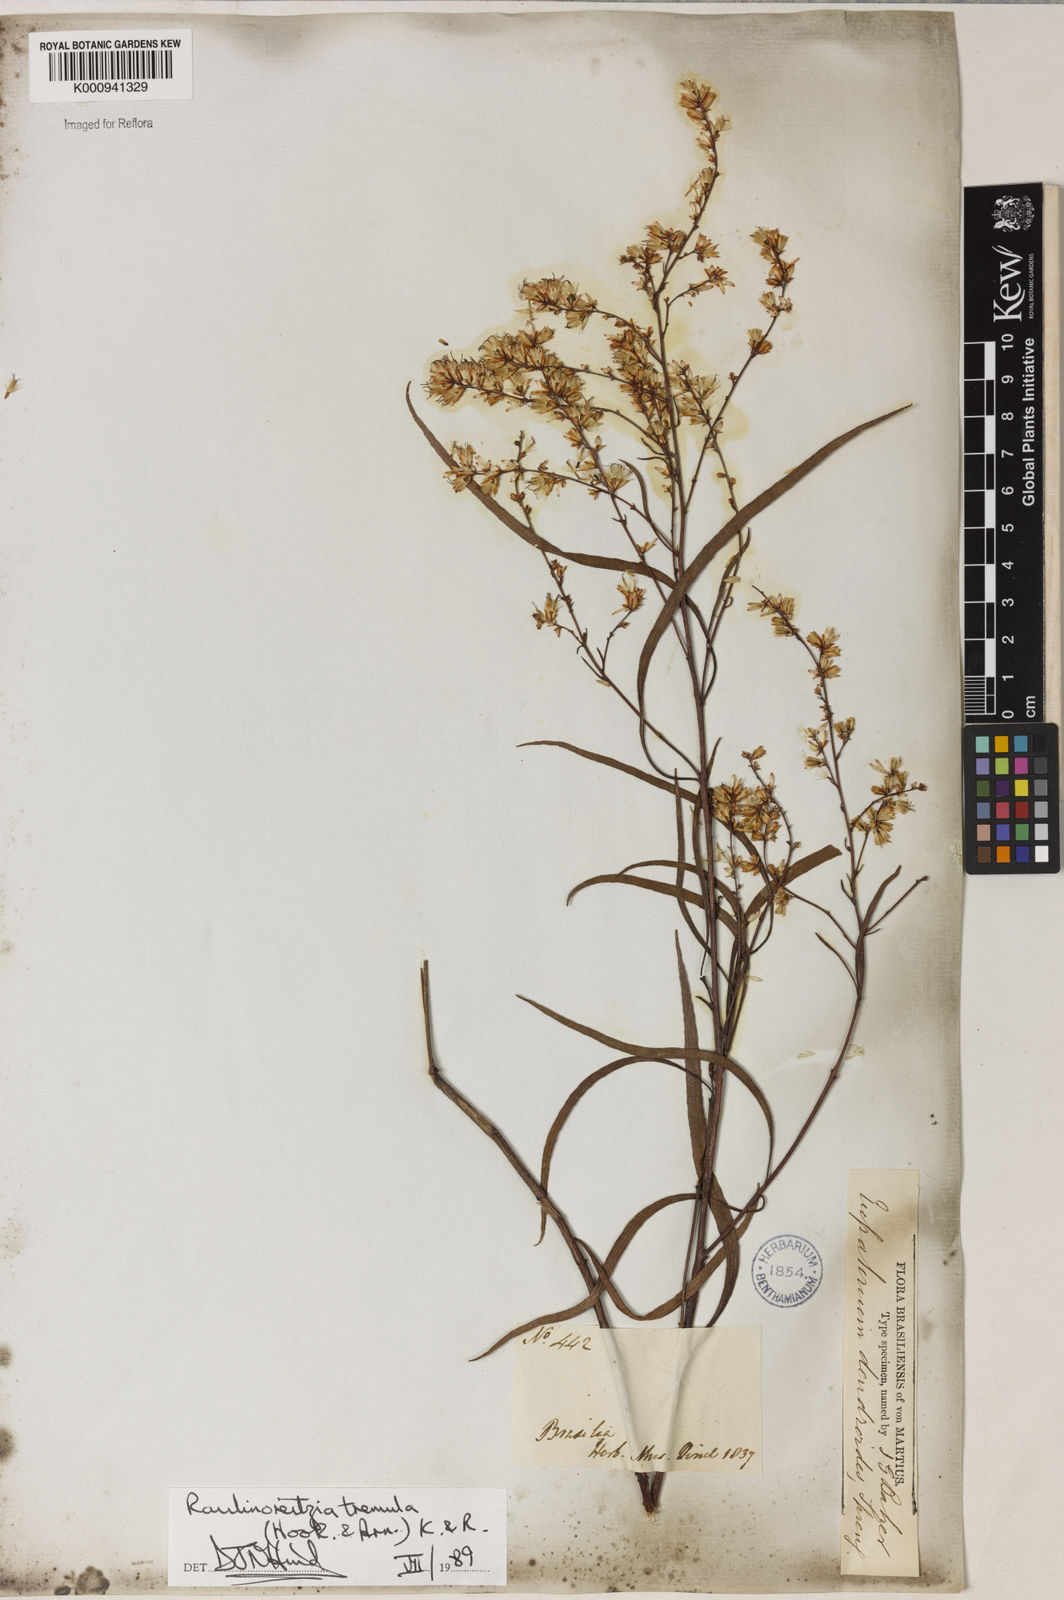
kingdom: Plantae
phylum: Tracheophyta
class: Magnoliopsida
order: Asterales
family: Asteraceae
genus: Raulinoreitzia
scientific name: Raulinoreitzia tremula
